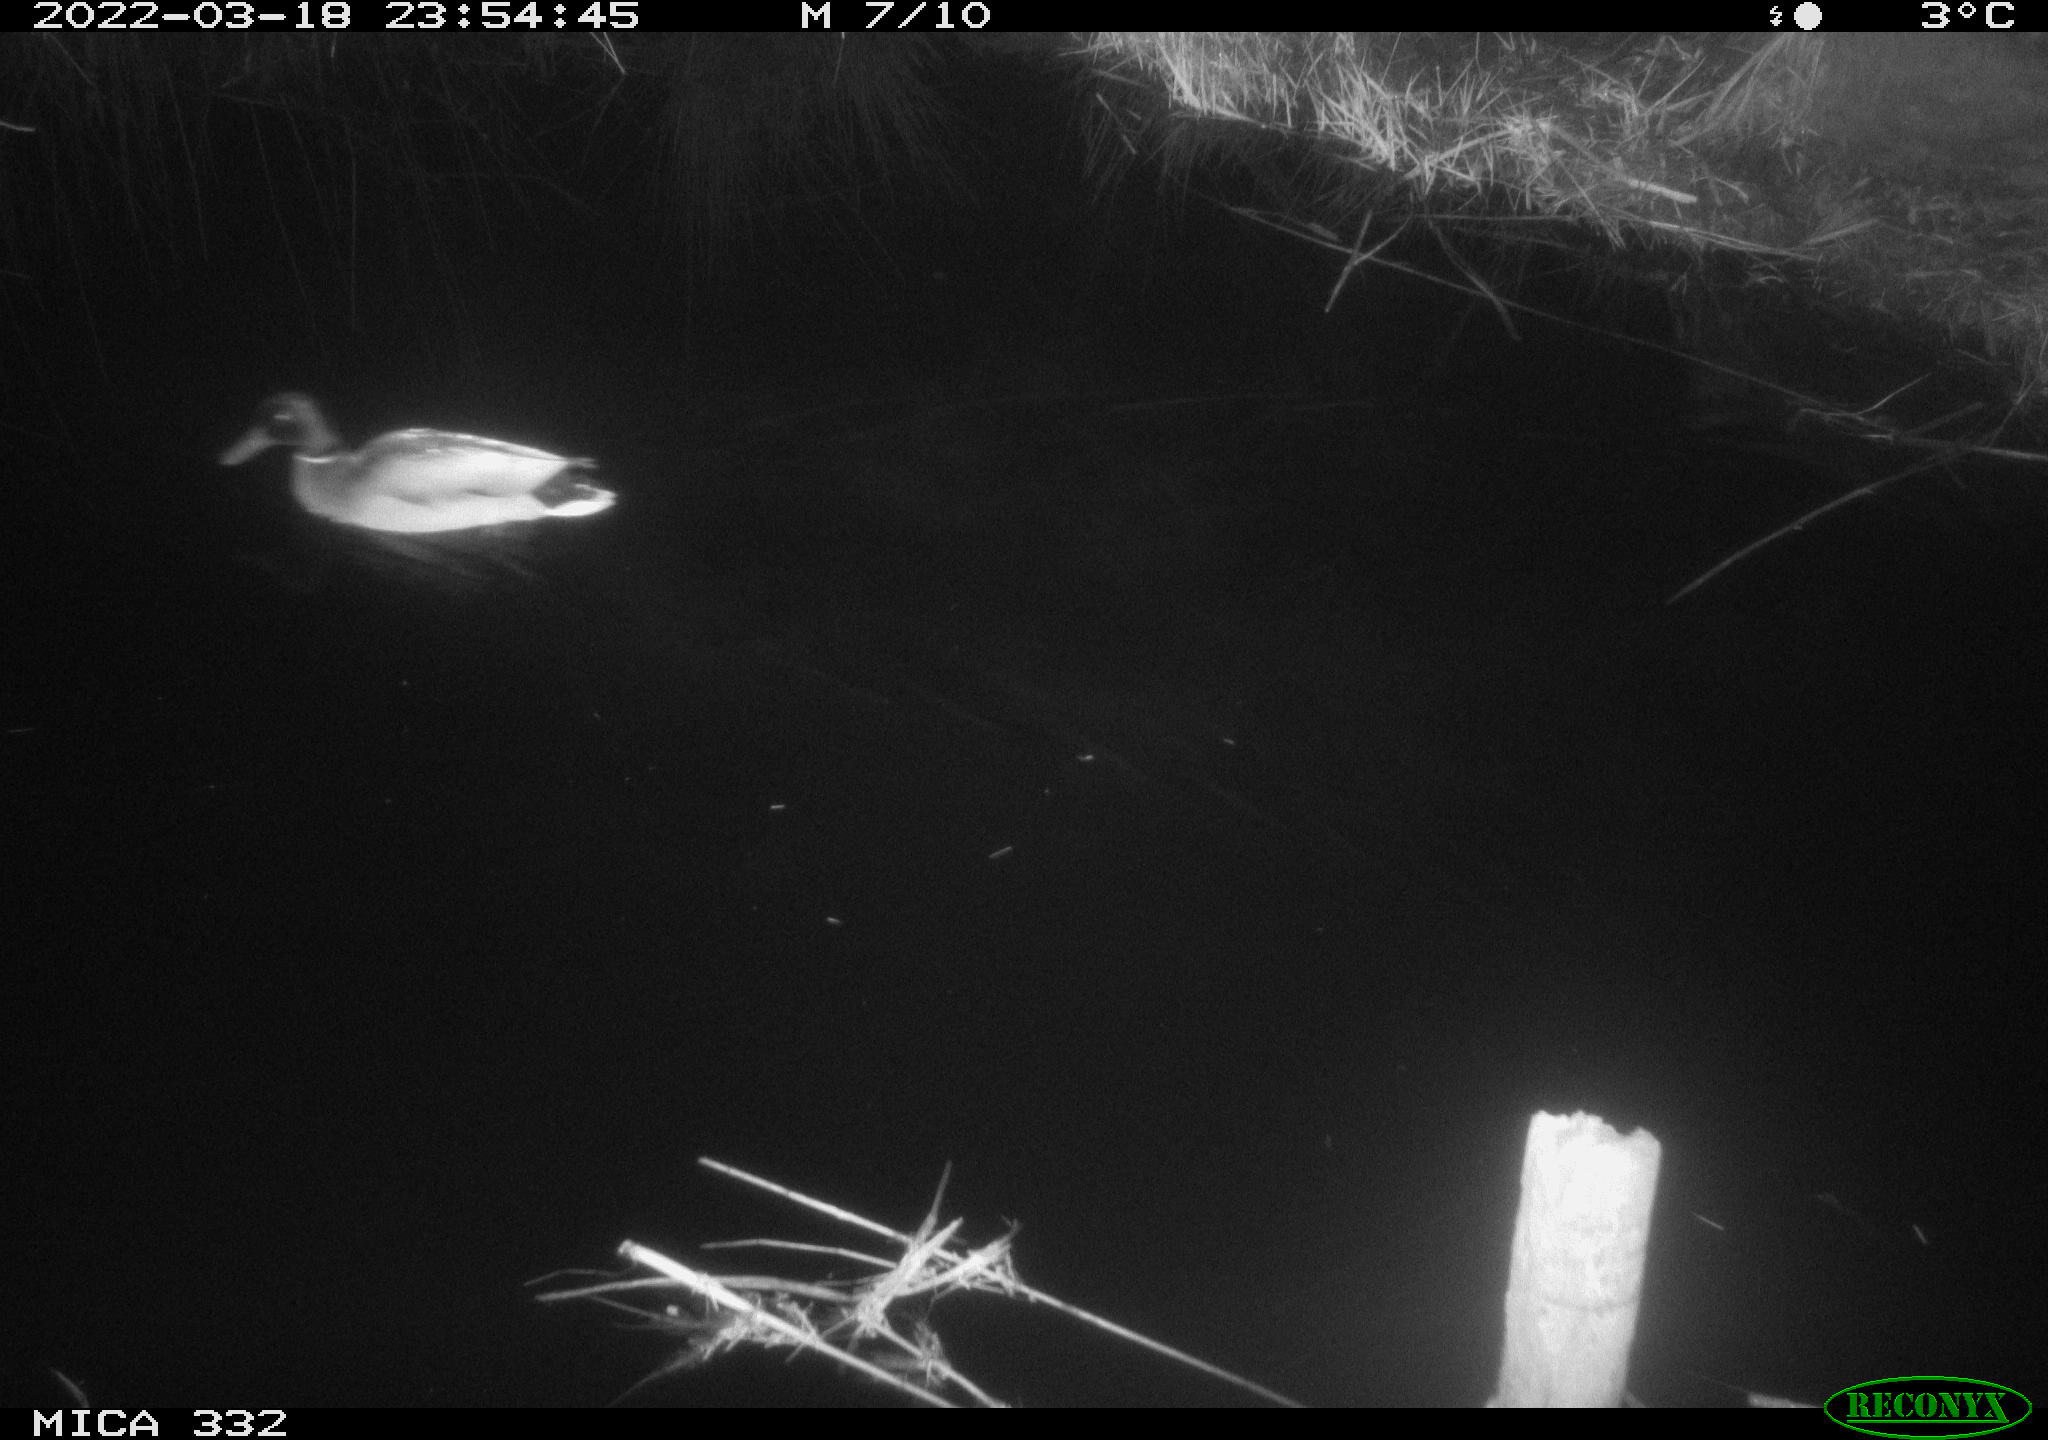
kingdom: Animalia
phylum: Chordata
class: Aves
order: Anseriformes
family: Anatidae
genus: Anas
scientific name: Anas platyrhynchos
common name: Mallard
